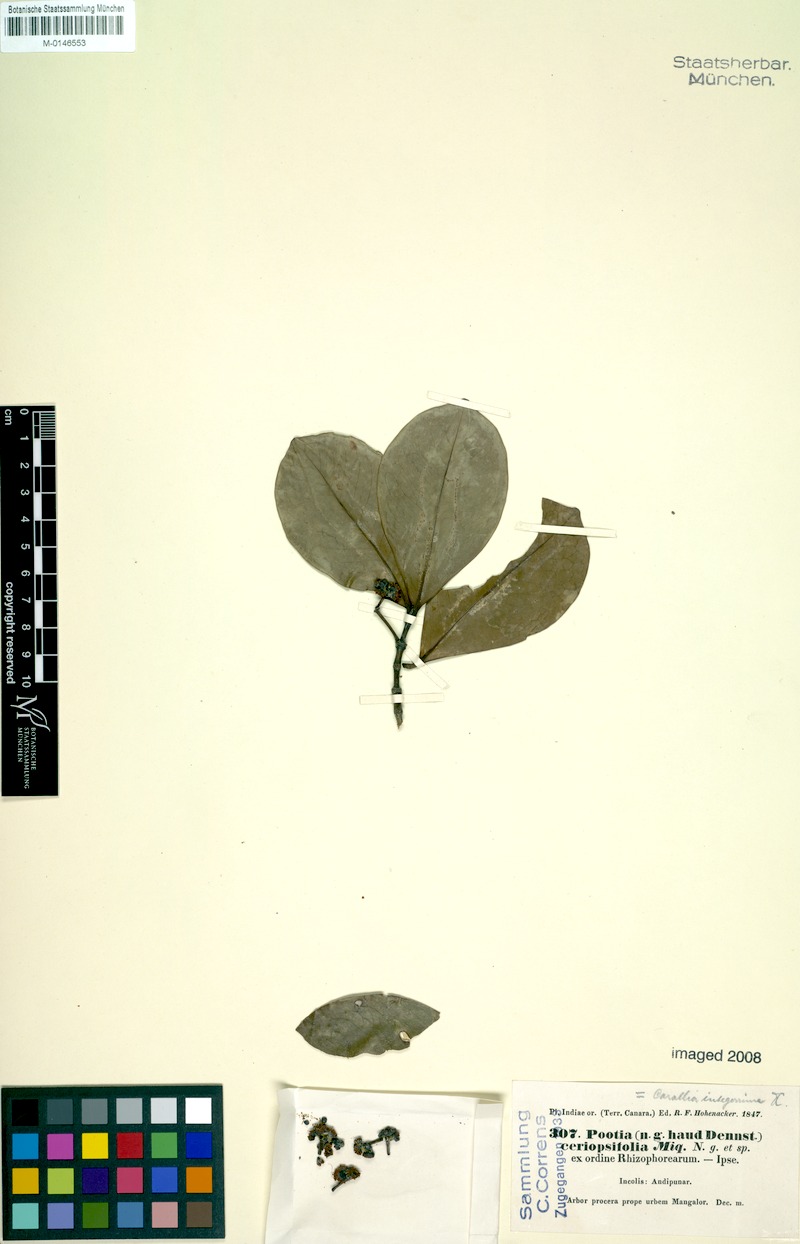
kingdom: Plantae
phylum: Tracheophyta
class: Magnoliopsida
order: Malpighiales
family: Rhizophoraceae
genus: Carallia
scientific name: Carallia brachiata
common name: Carallawood
